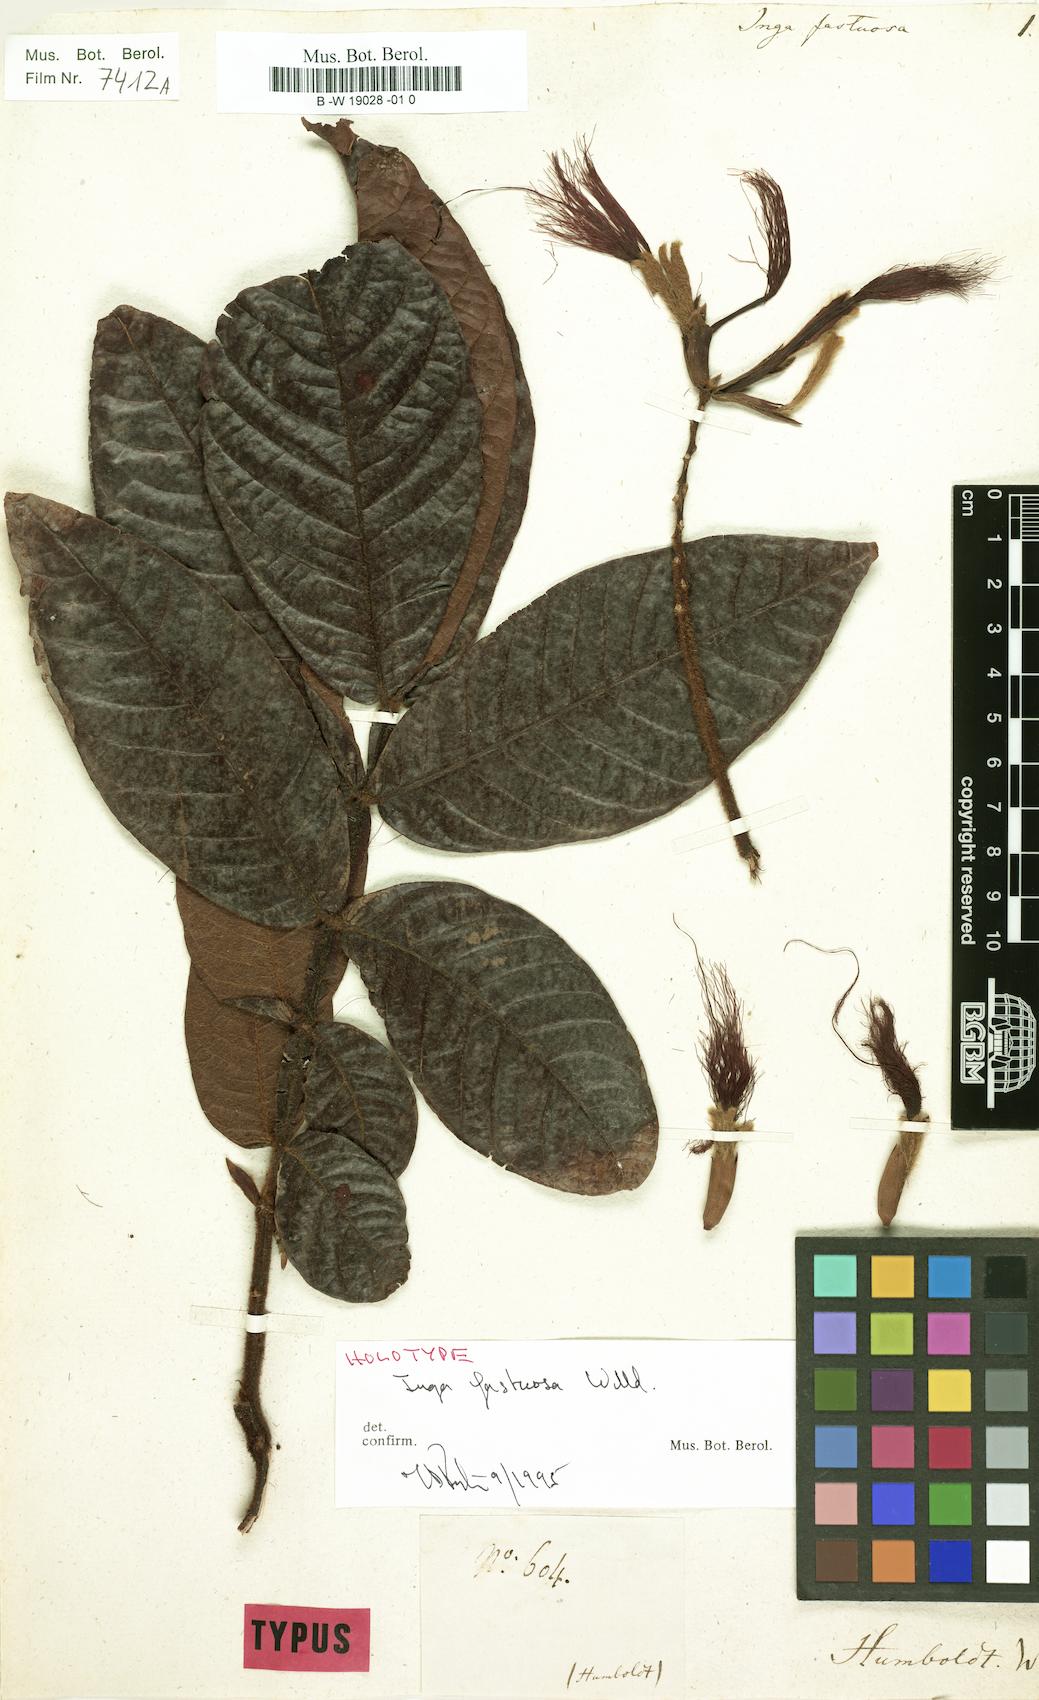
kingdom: Plantae
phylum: Tracheophyta
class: Magnoliopsida
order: Fabales
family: Fabaceae
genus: Inga
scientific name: Inga fastuosa
